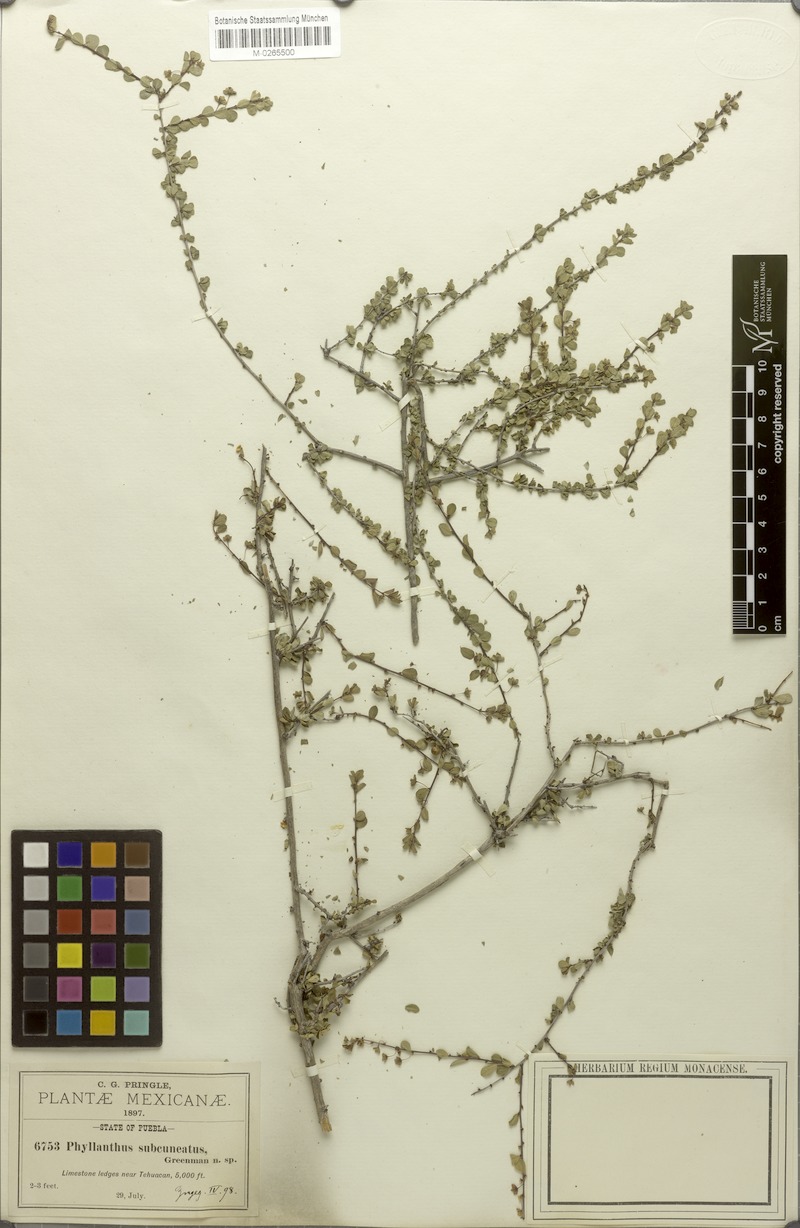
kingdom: Plantae
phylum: Tracheophyta
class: Magnoliopsida
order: Malpighiales
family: Phyllanthaceae
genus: Phyllanthus
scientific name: Phyllanthus subcuneatus
